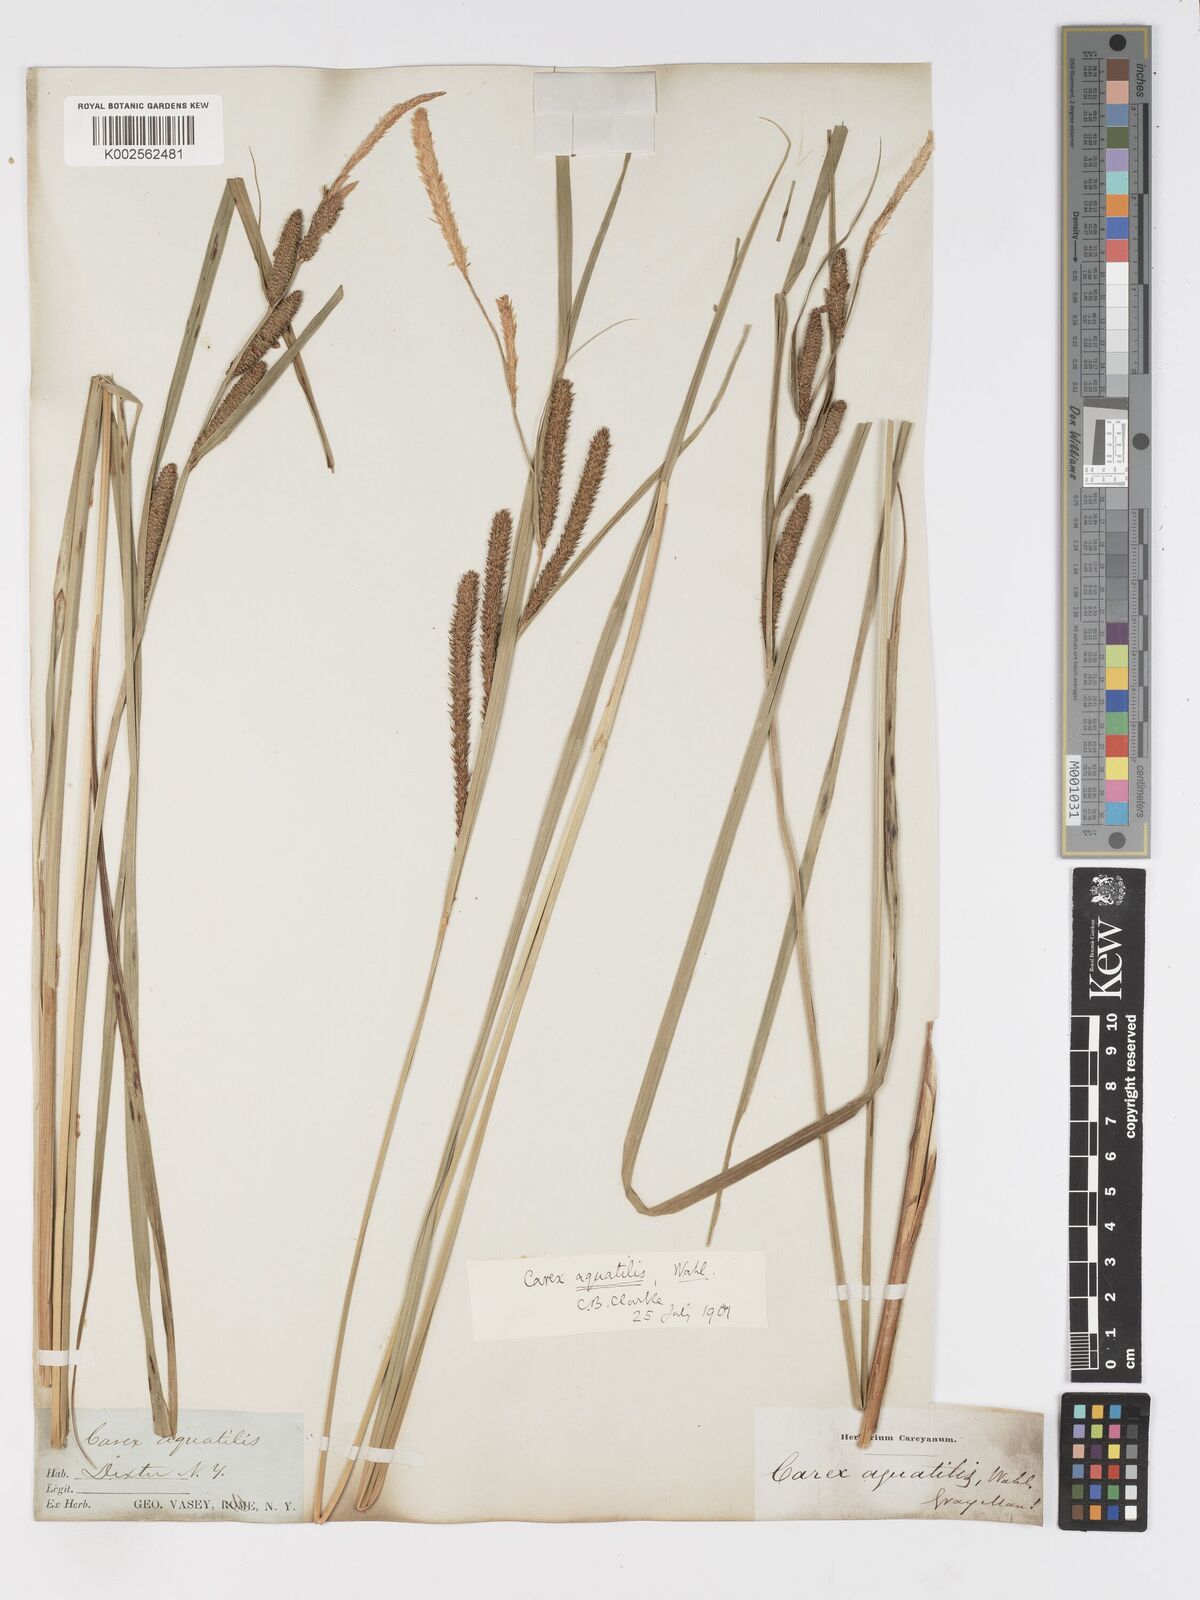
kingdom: Plantae
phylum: Tracheophyta
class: Liliopsida
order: Poales
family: Cyperaceae
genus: Carex
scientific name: Carex
